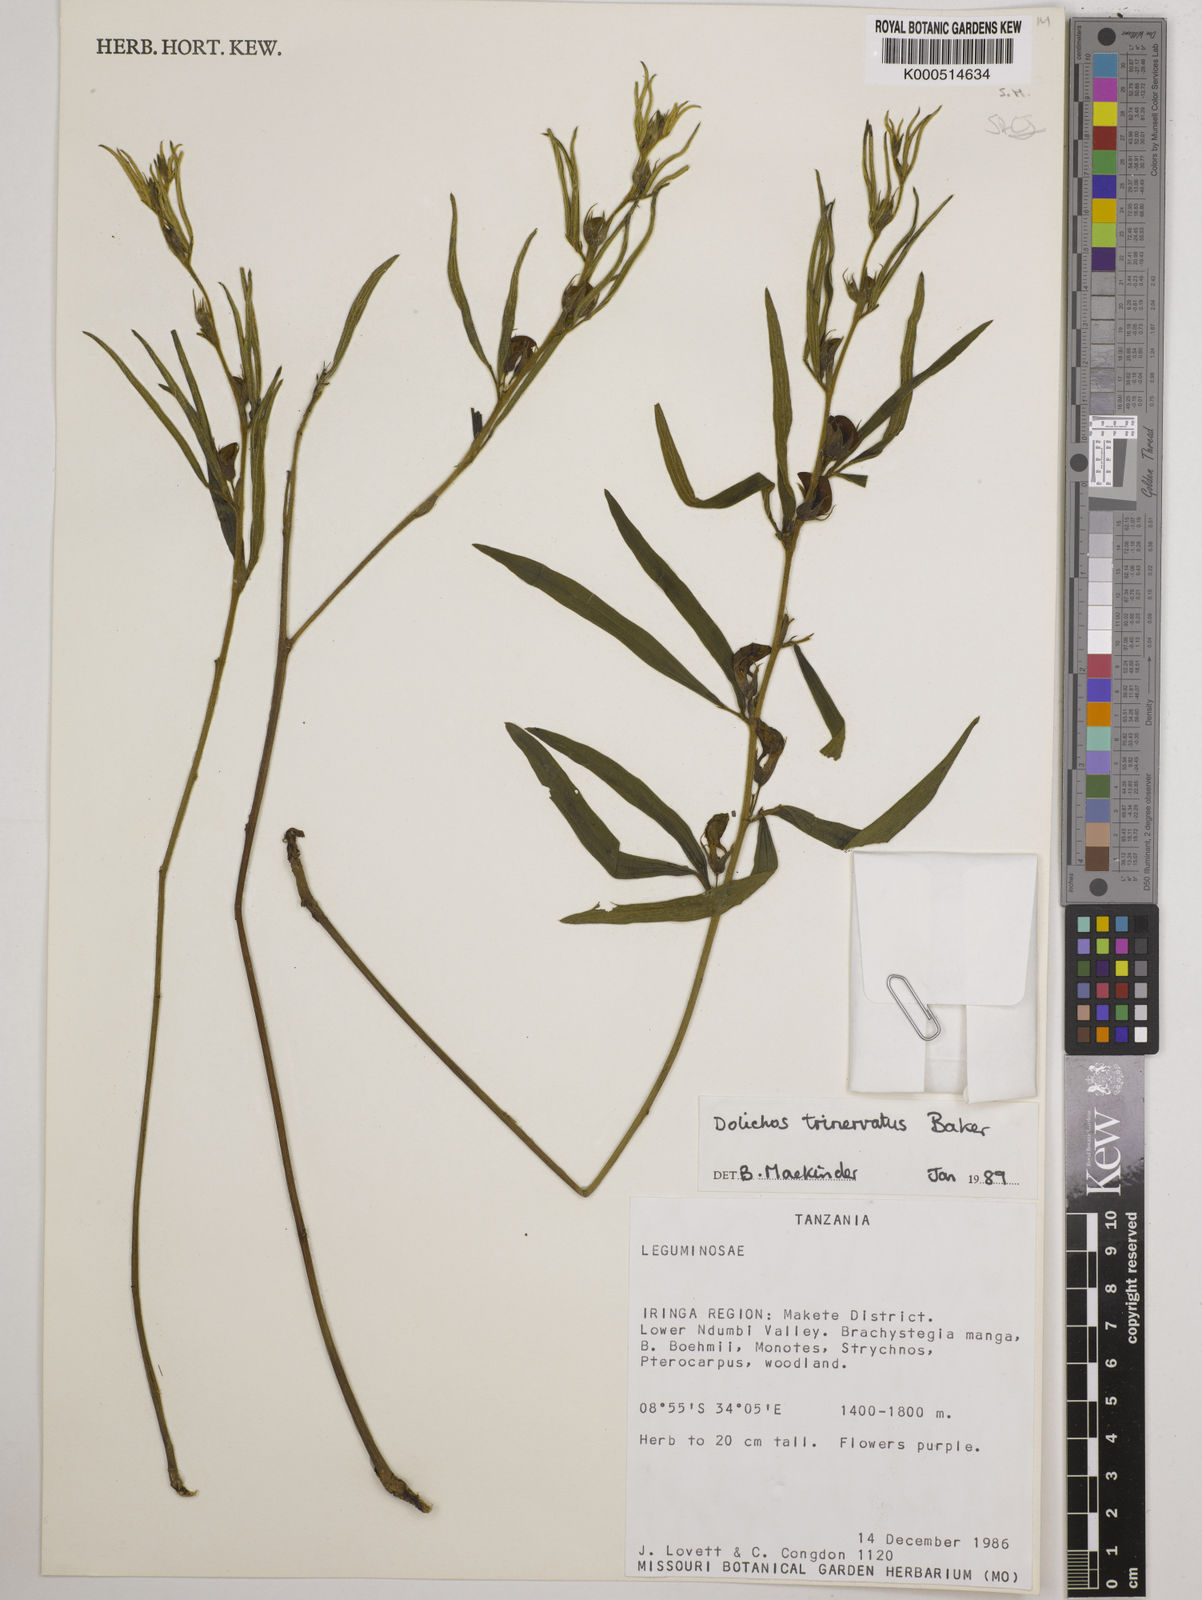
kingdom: Plantae
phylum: Tracheophyta
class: Magnoliopsida
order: Fabales
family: Fabaceae
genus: Dolichos
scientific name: Dolichos trinervatus
